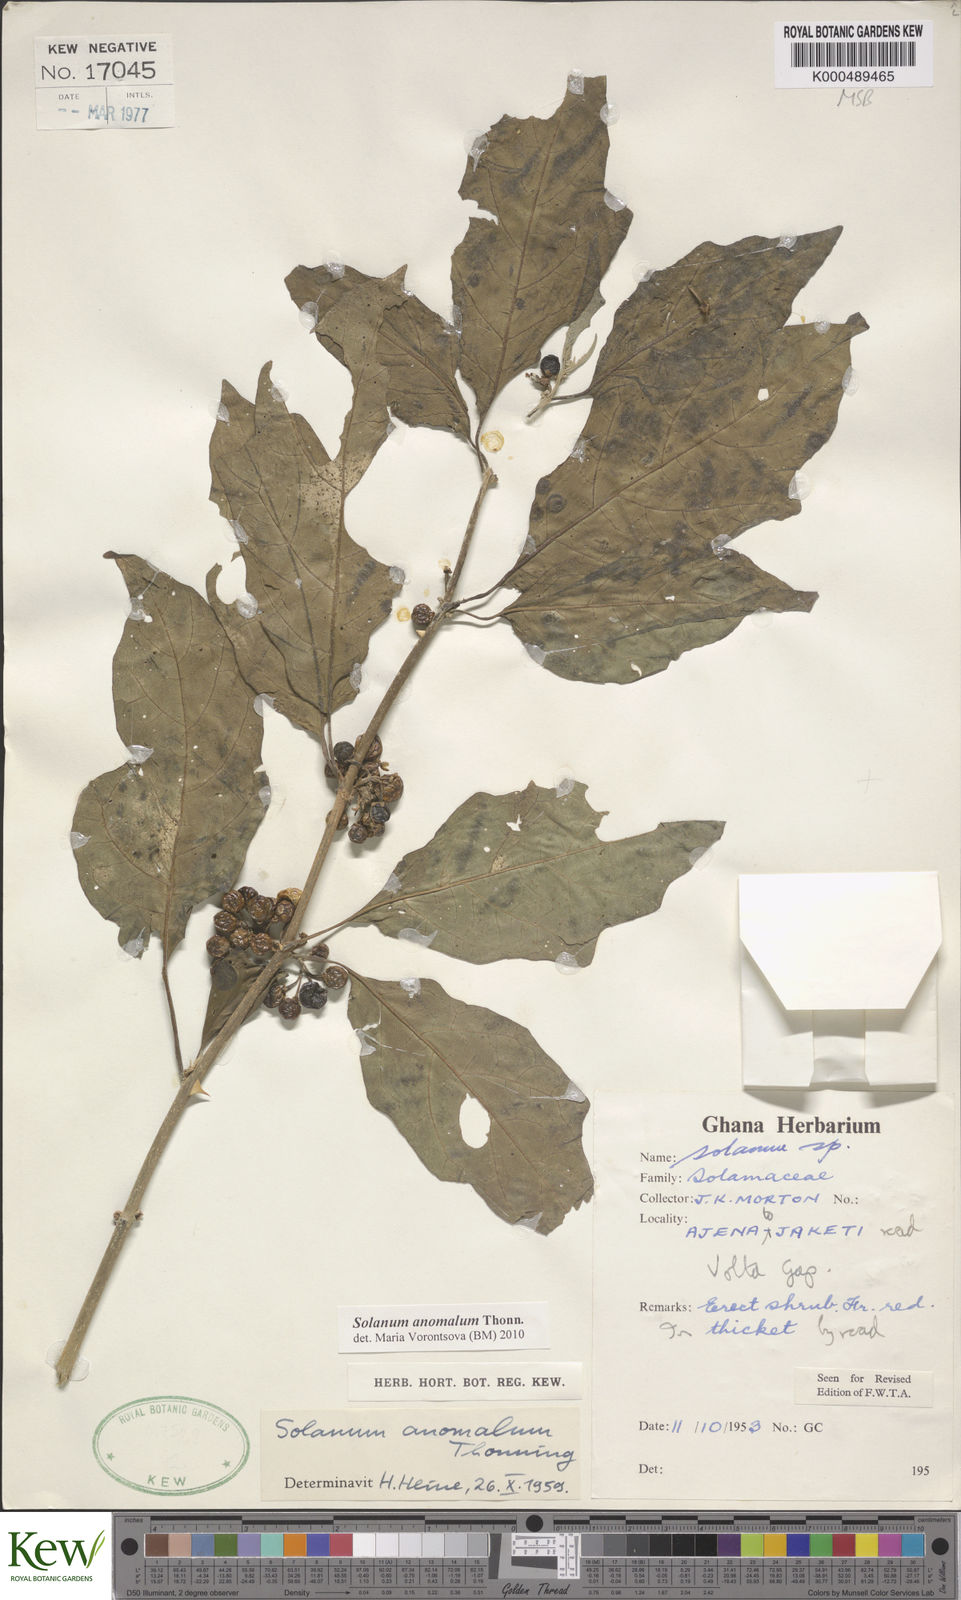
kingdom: Plantae
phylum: Tracheophyta
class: Magnoliopsida
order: Solanales
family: Solanaceae
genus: Solanum
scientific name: Solanum anomalum
